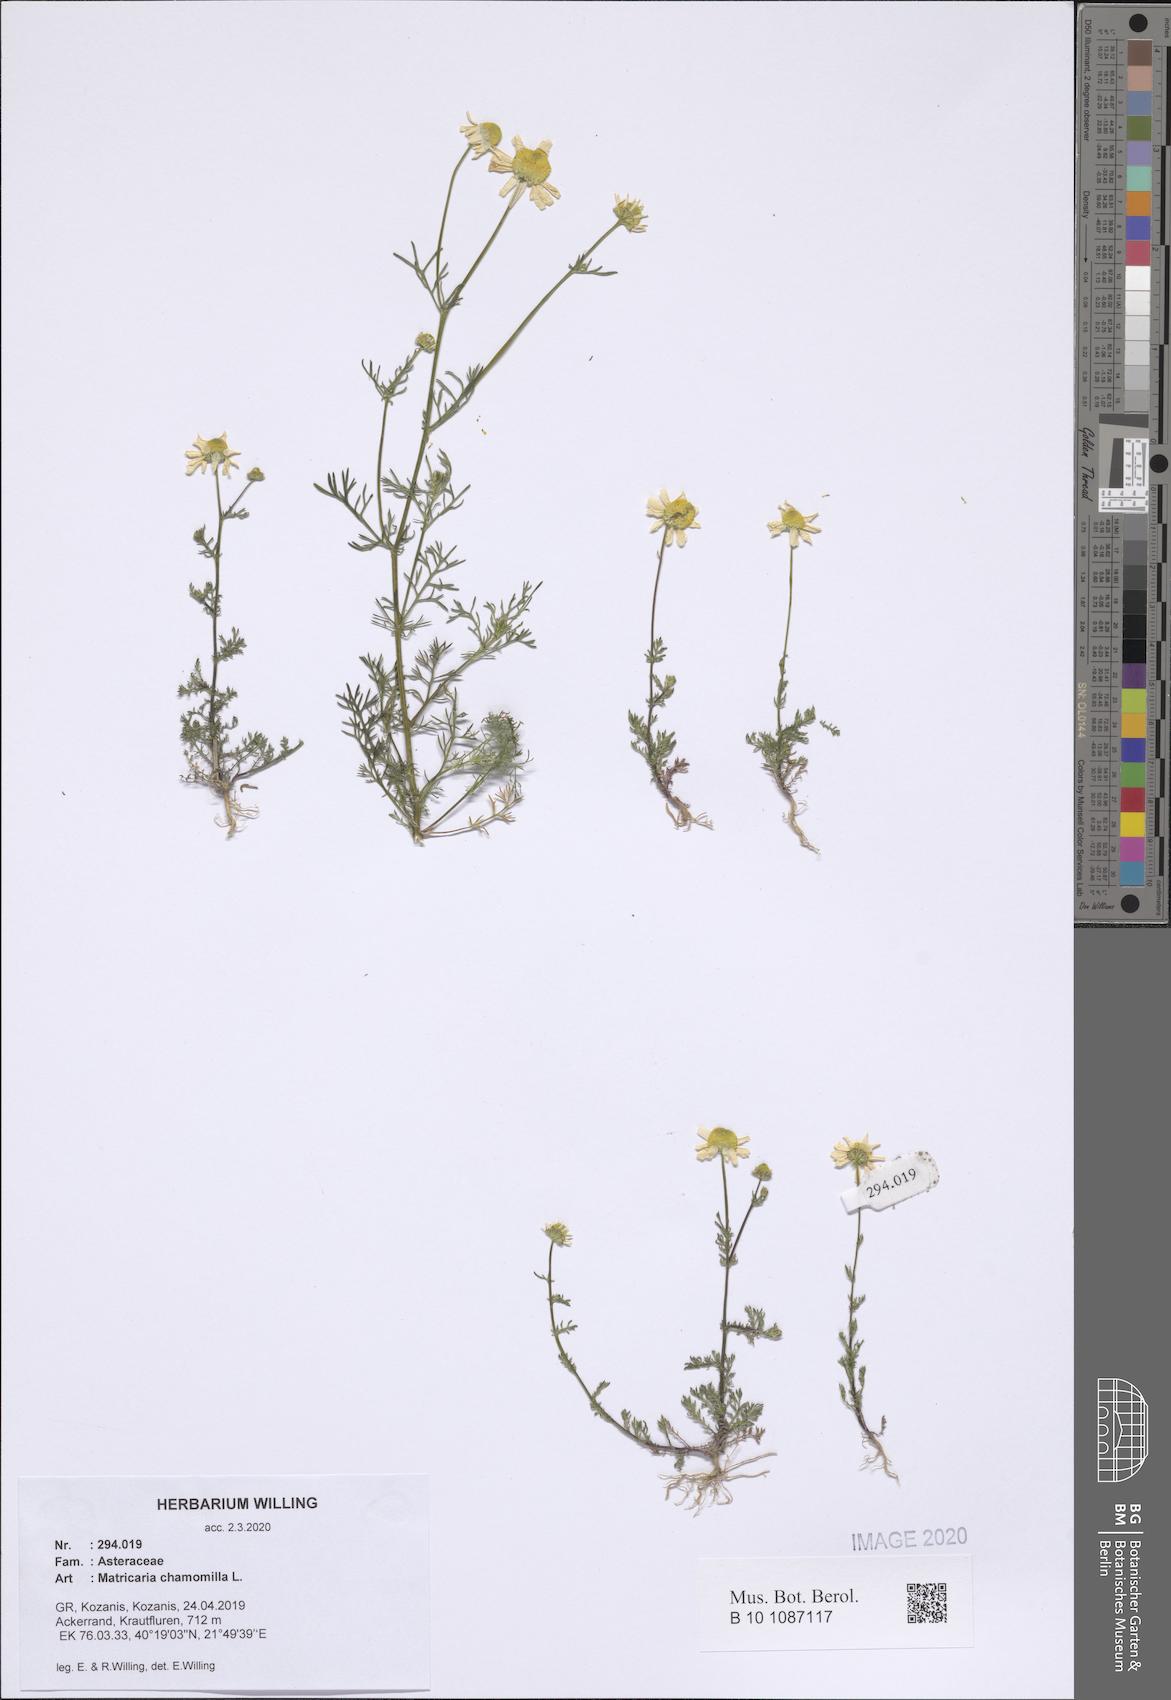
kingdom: Plantae
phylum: Tracheophyta
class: Magnoliopsida
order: Asterales
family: Asteraceae
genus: Matricaria
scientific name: Matricaria chamomilla
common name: Scented mayweed
